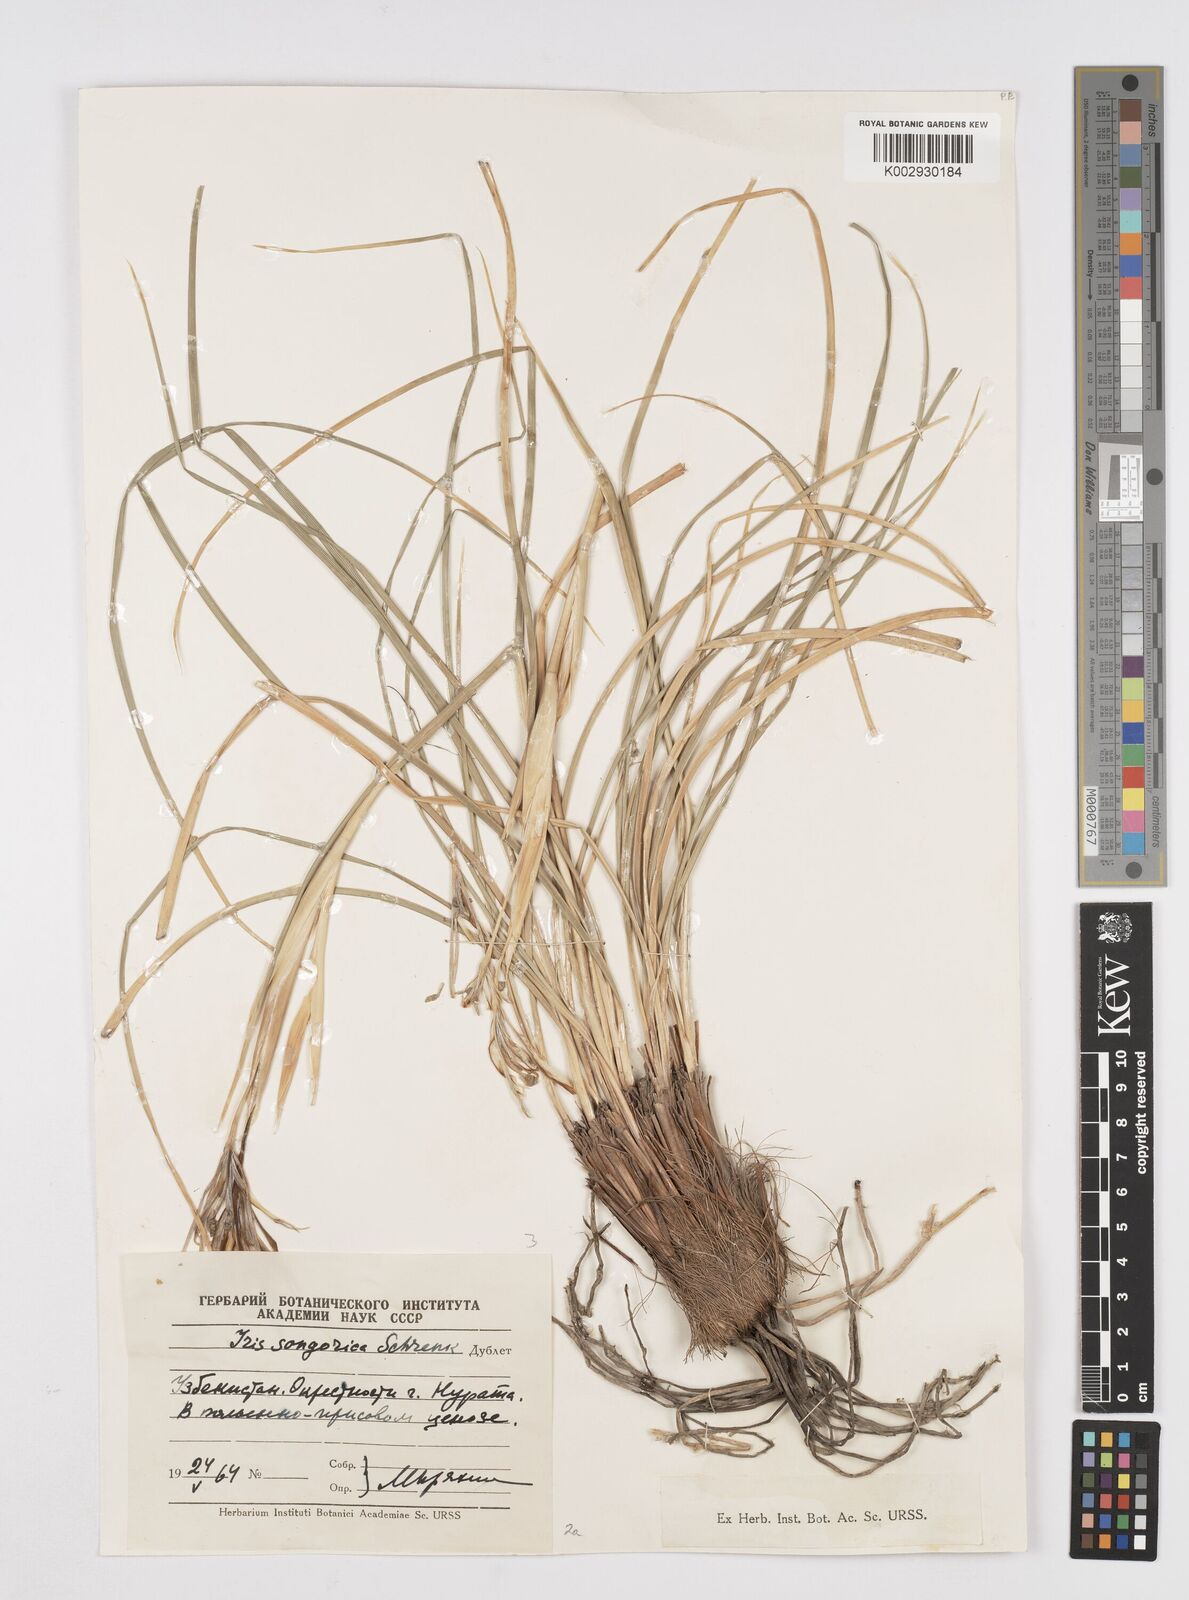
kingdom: Plantae
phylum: Tracheophyta
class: Liliopsida
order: Asparagales
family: Iridaceae
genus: Iris
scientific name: Iris songarica
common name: Songar iris
